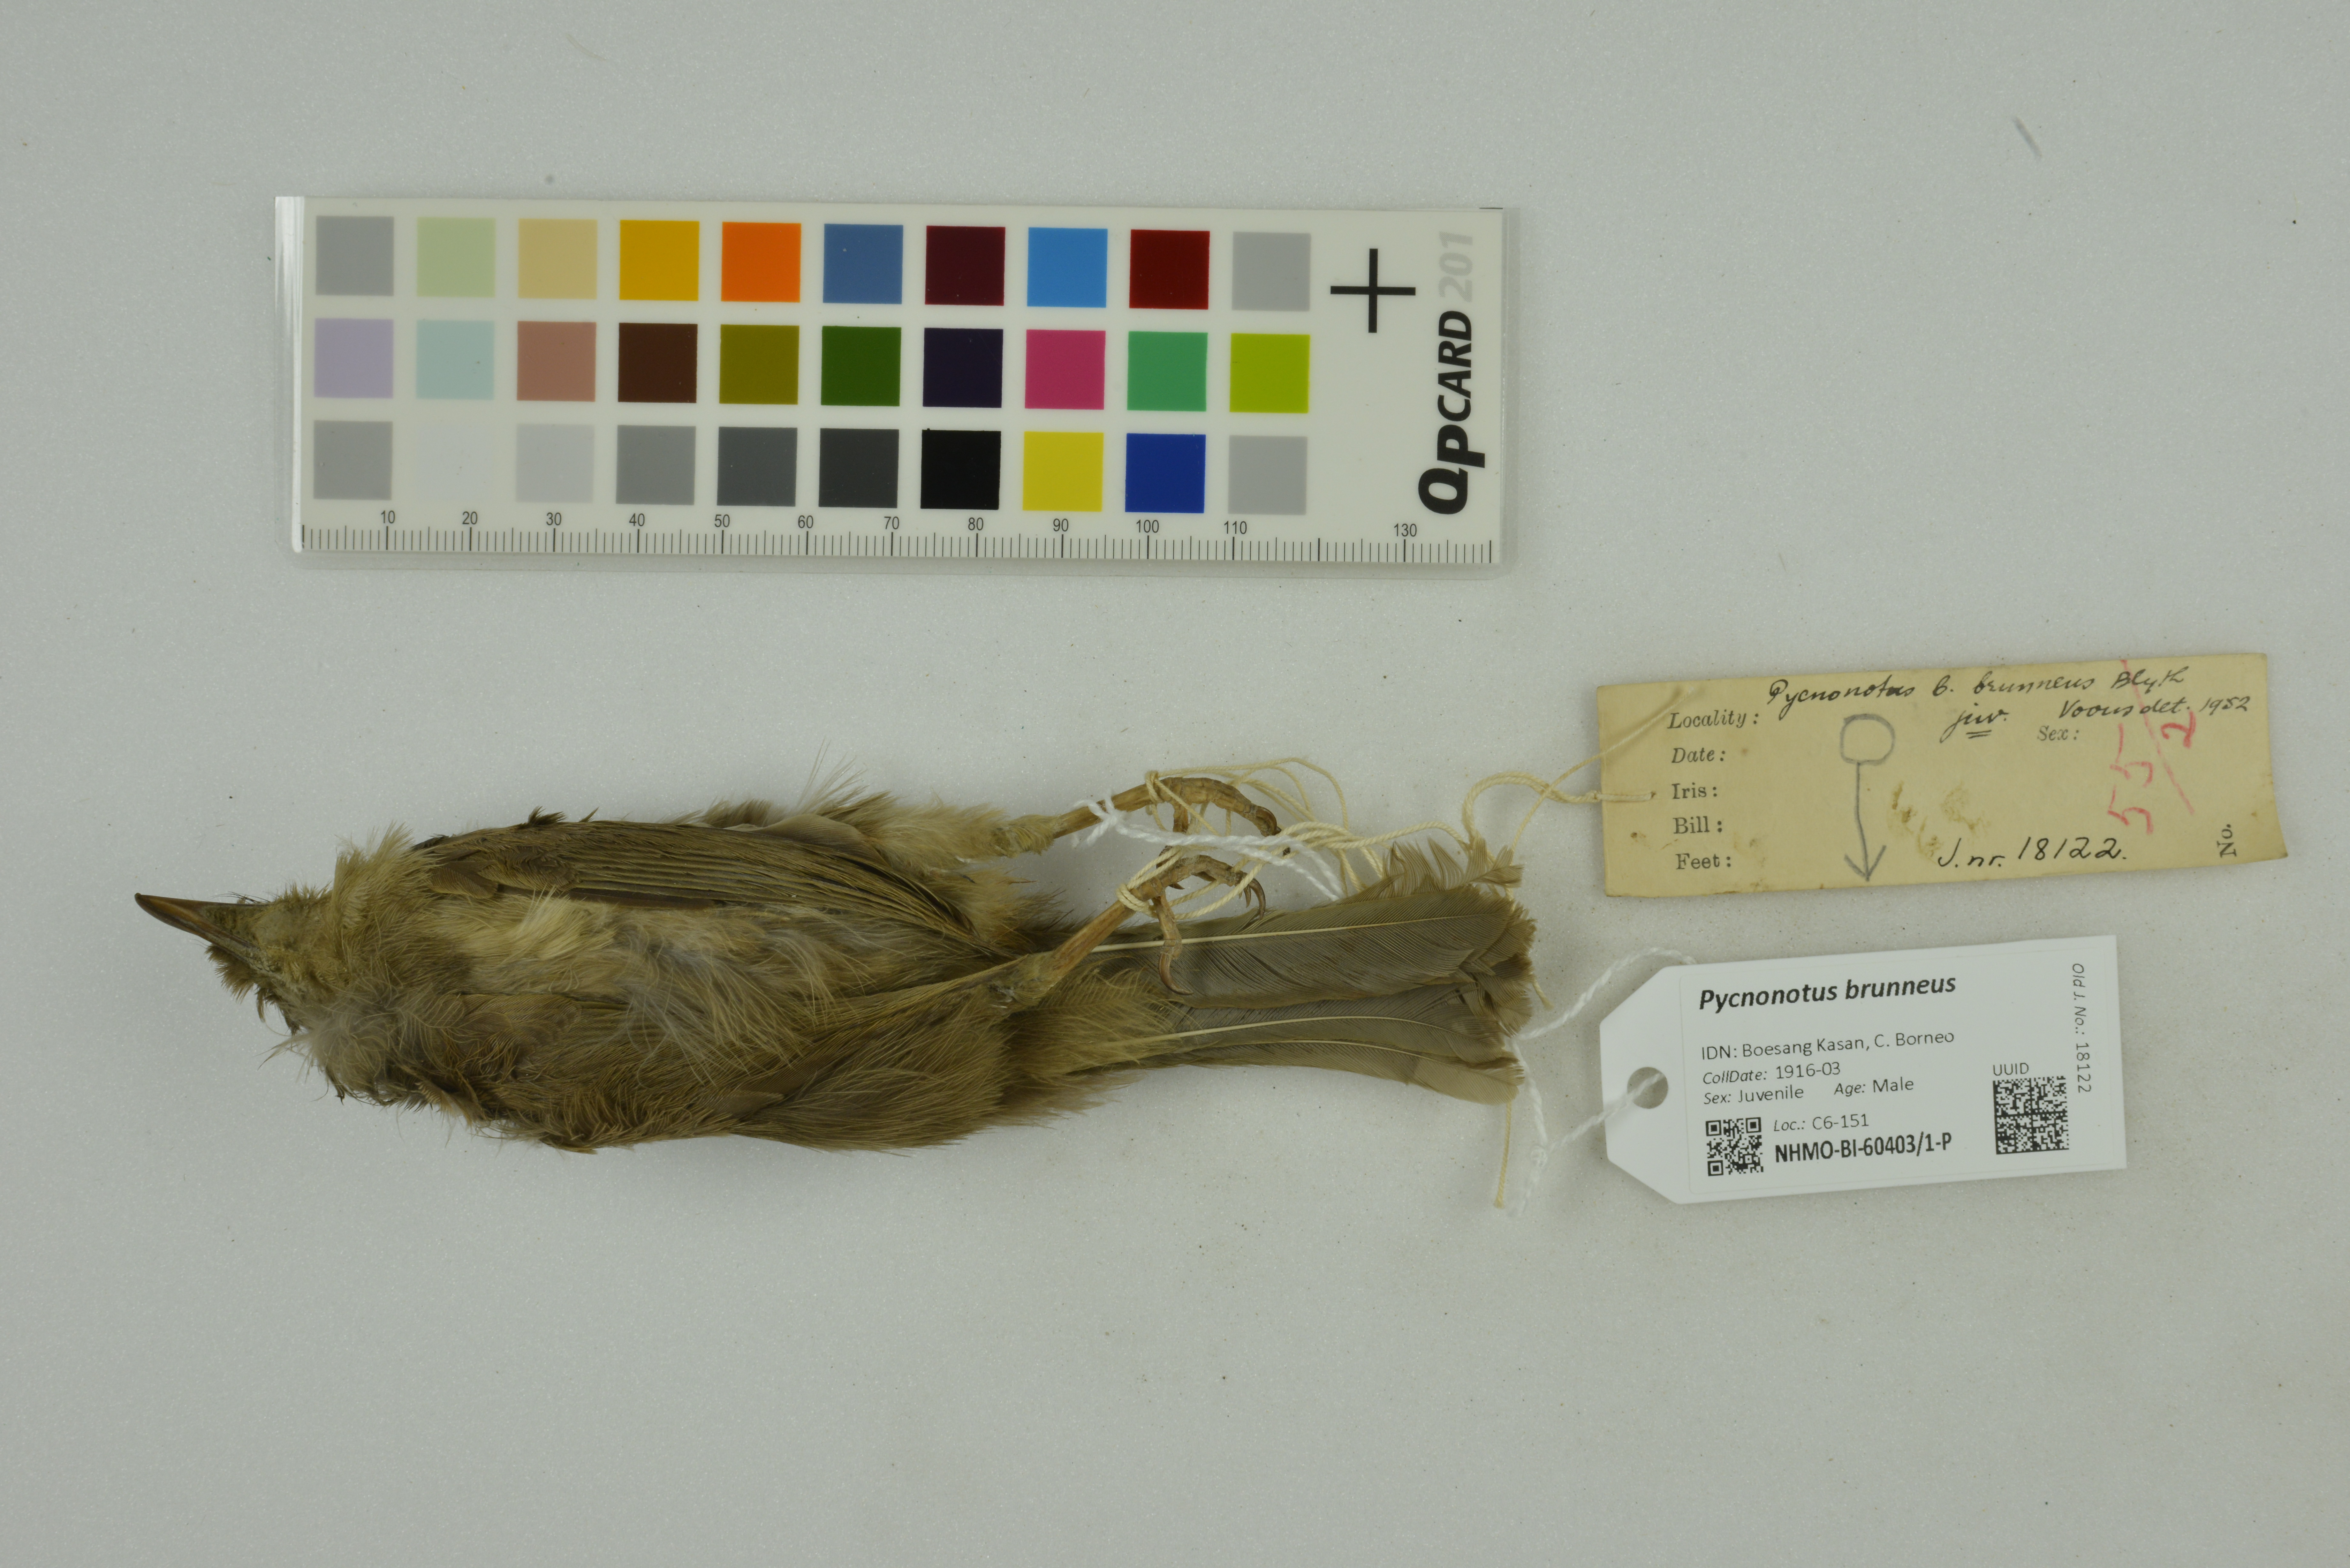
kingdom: Animalia
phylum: Chordata
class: Aves
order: Passeriformes
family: Pycnonotidae
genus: Pycnonotus
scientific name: Pycnonotus brunneus
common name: Asian red-eyed bulbul
